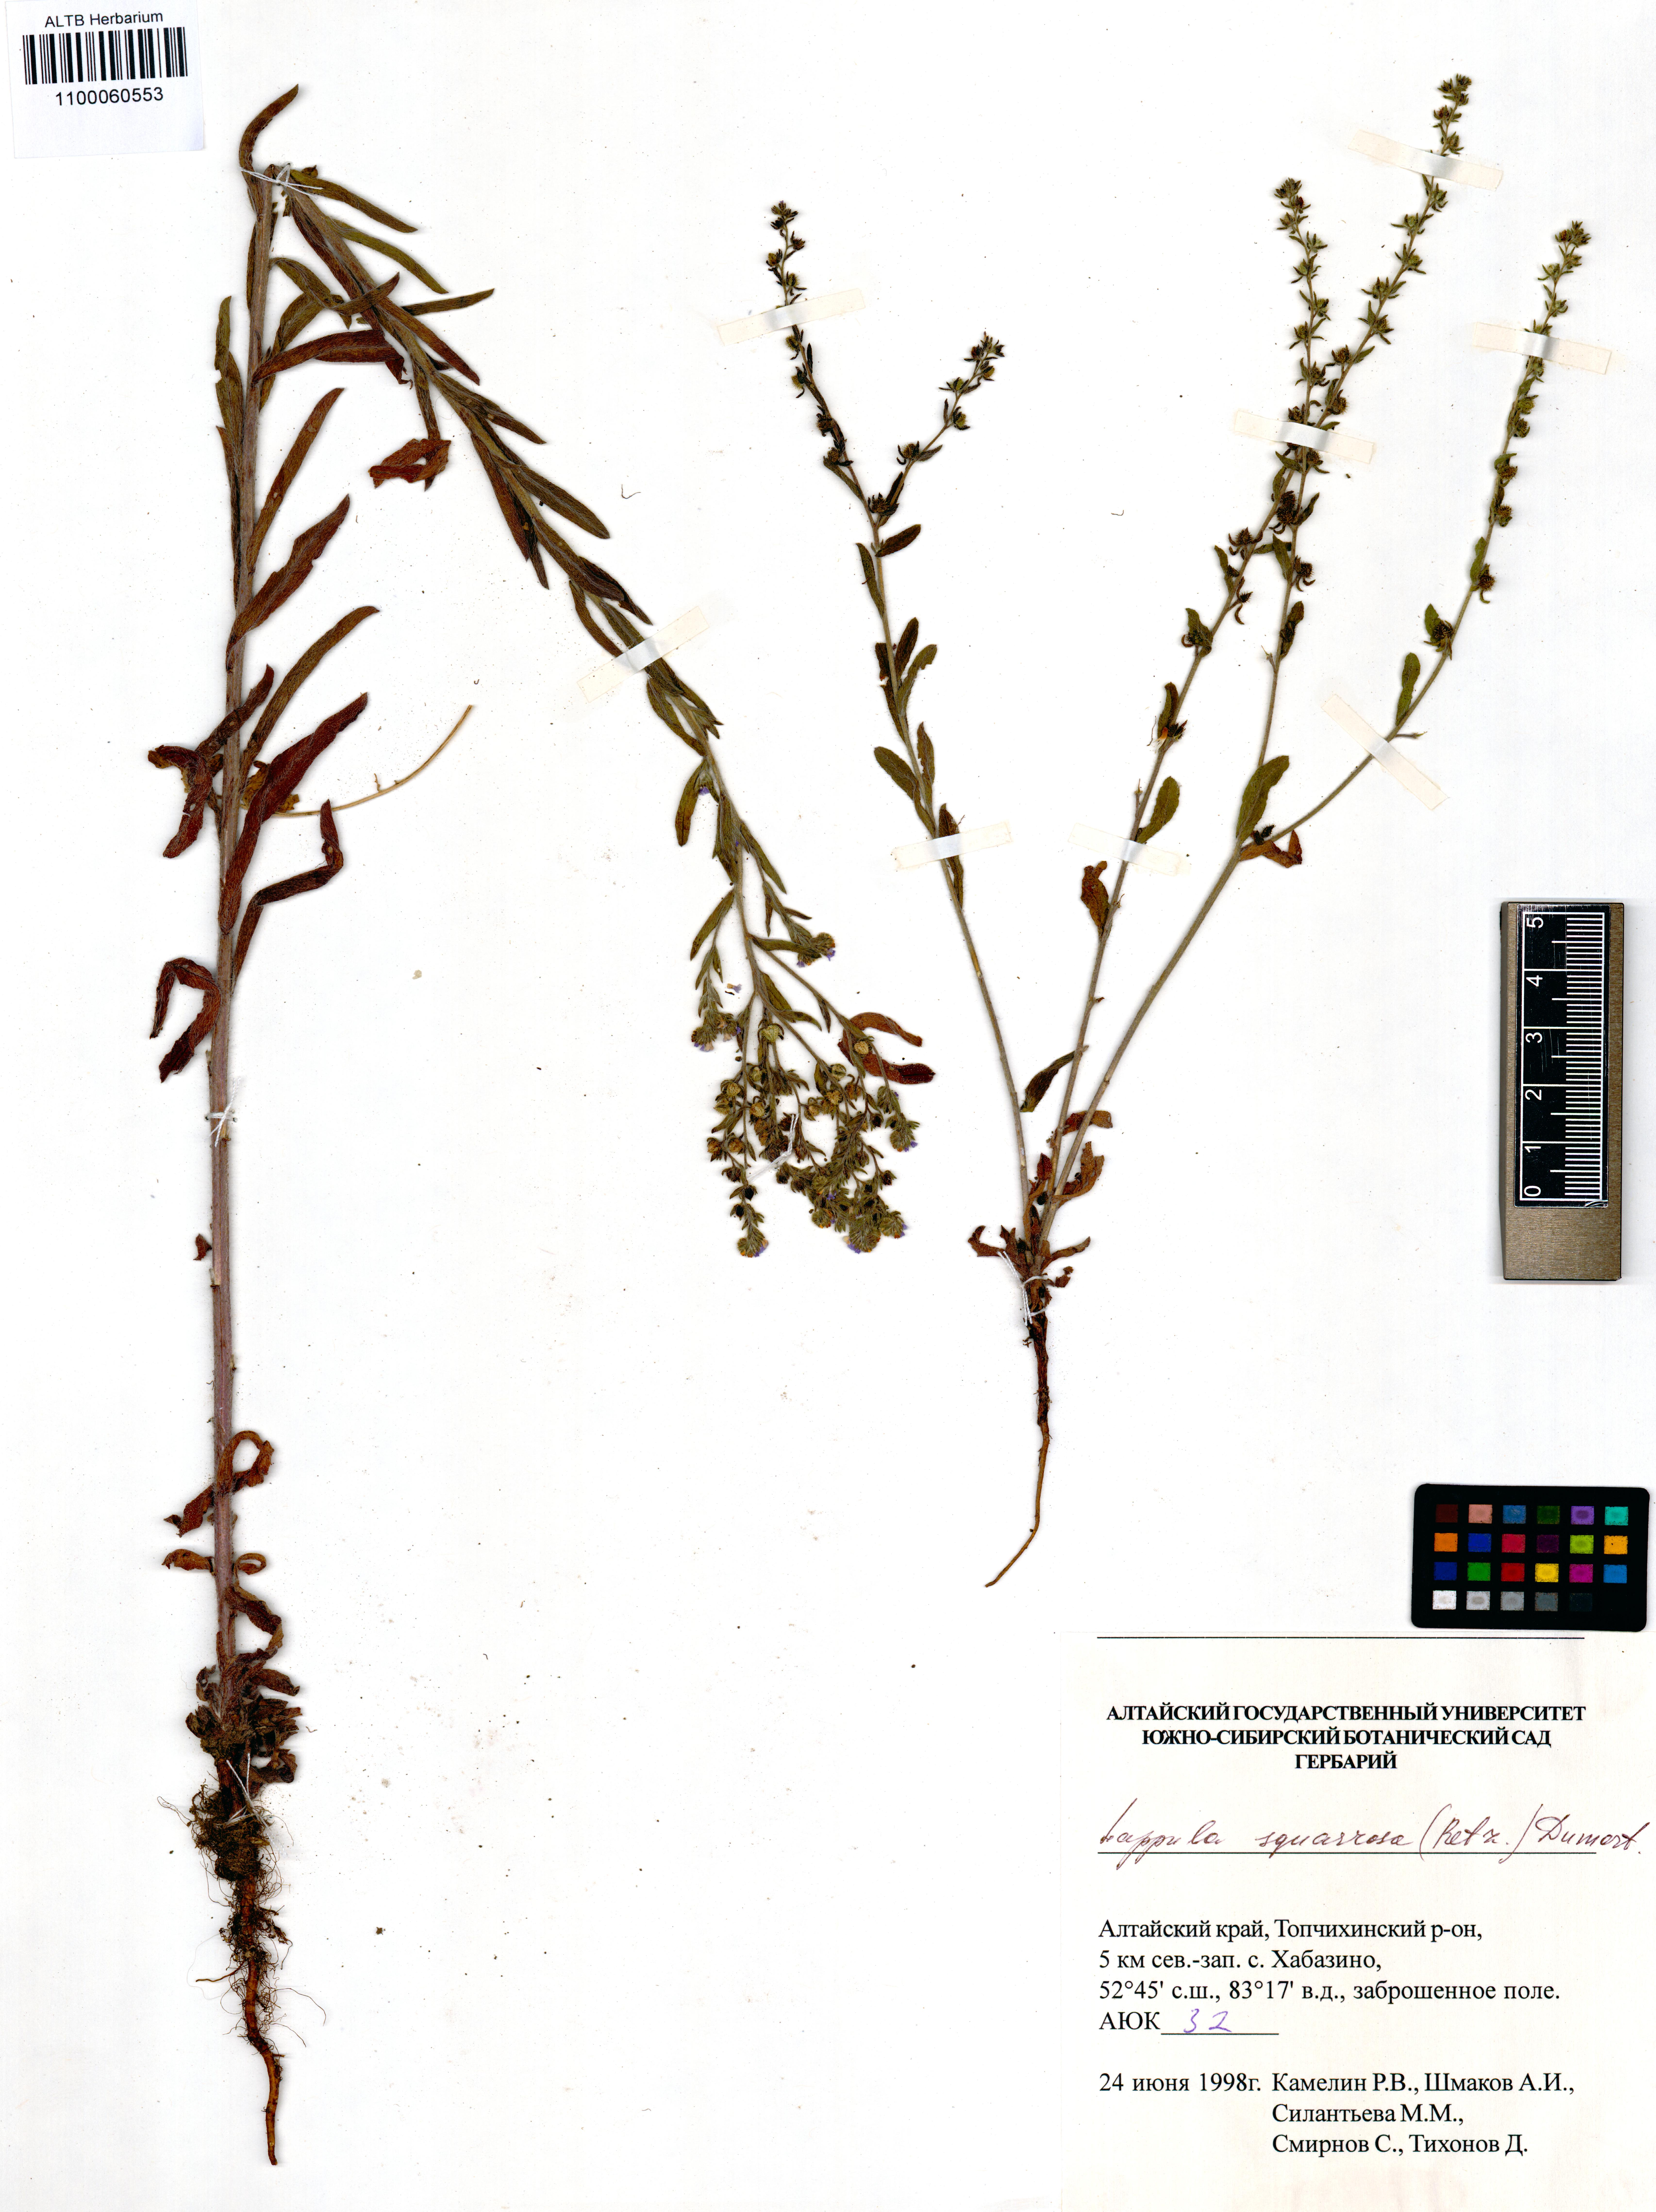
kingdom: Plantae
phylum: Tracheophyta
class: Magnoliopsida
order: Boraginales
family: Boraginaceae
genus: Lappula
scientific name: Lappula squarrosa
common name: European stickseed
